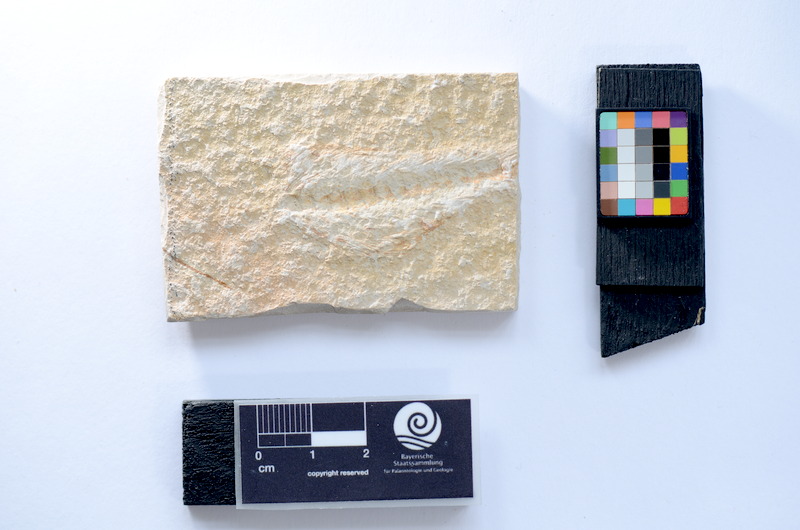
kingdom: Animalia
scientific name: Animalia
